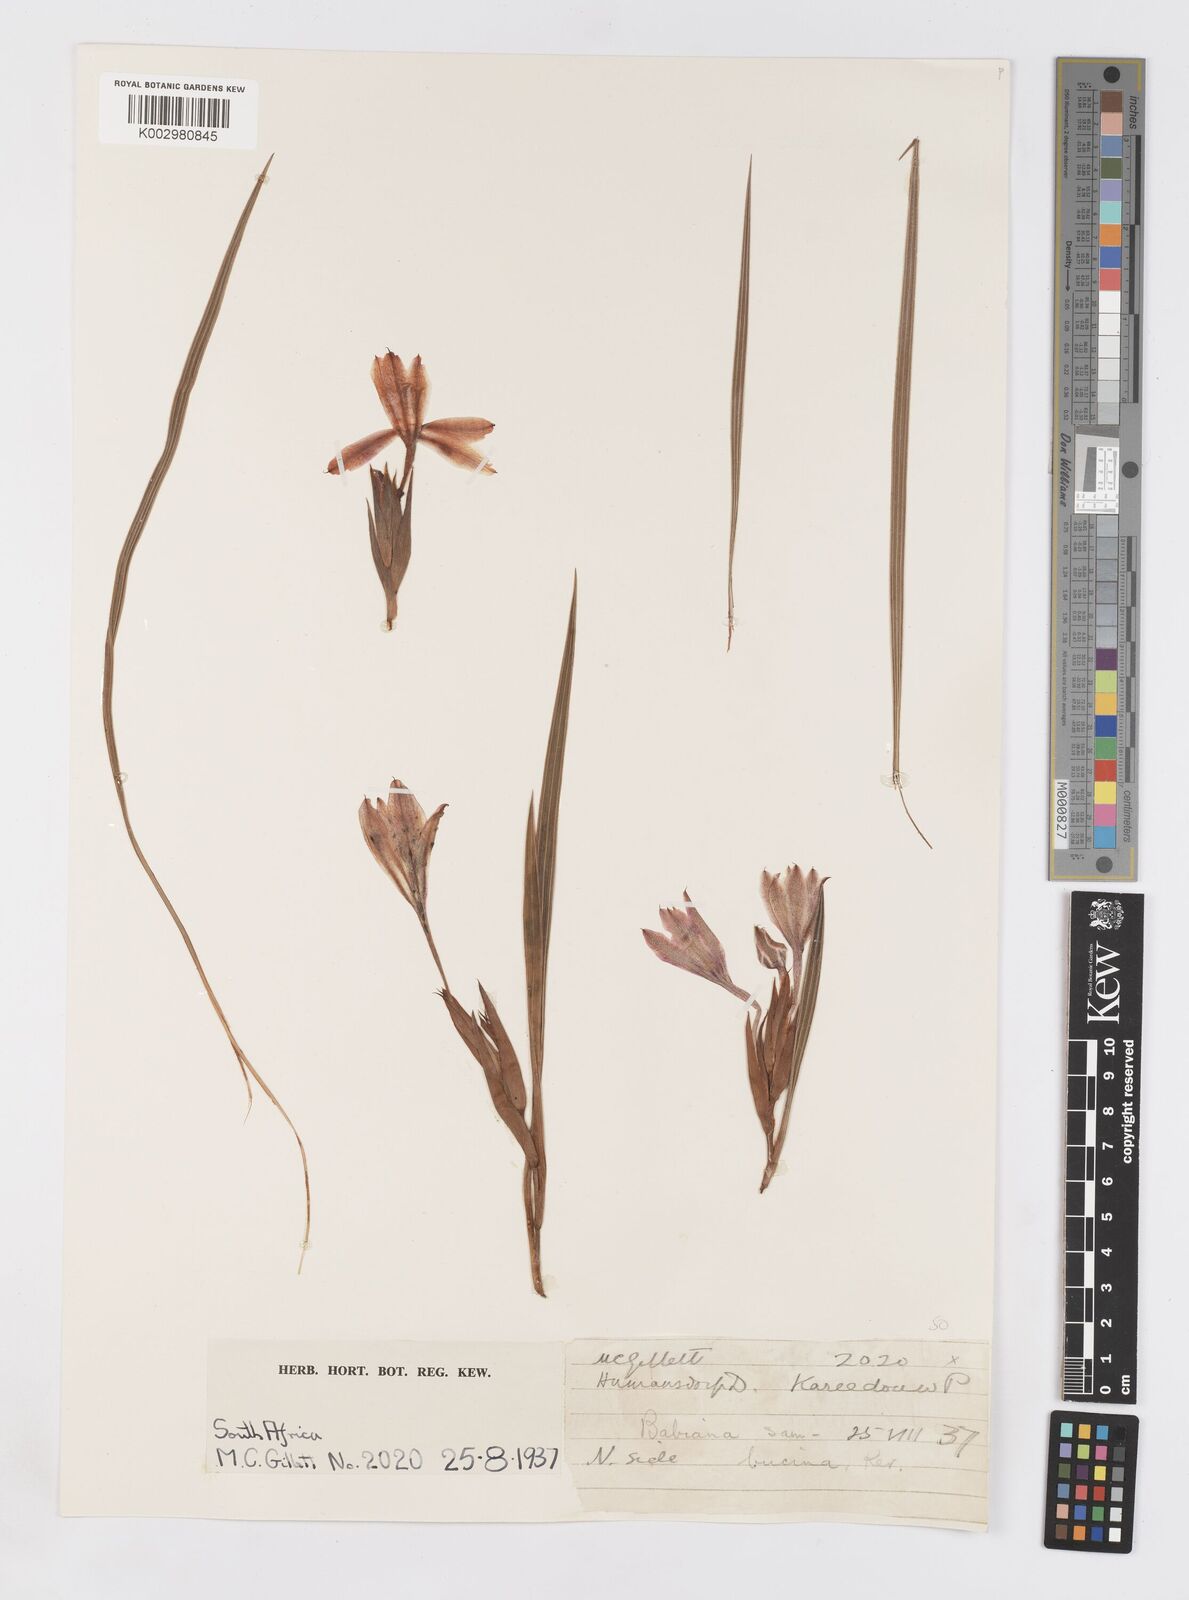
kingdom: Plantae
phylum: Tracheophyta
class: Liliopsida
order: Asparagales
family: Iridaceae
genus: Babiana
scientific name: Babiana sambucina
